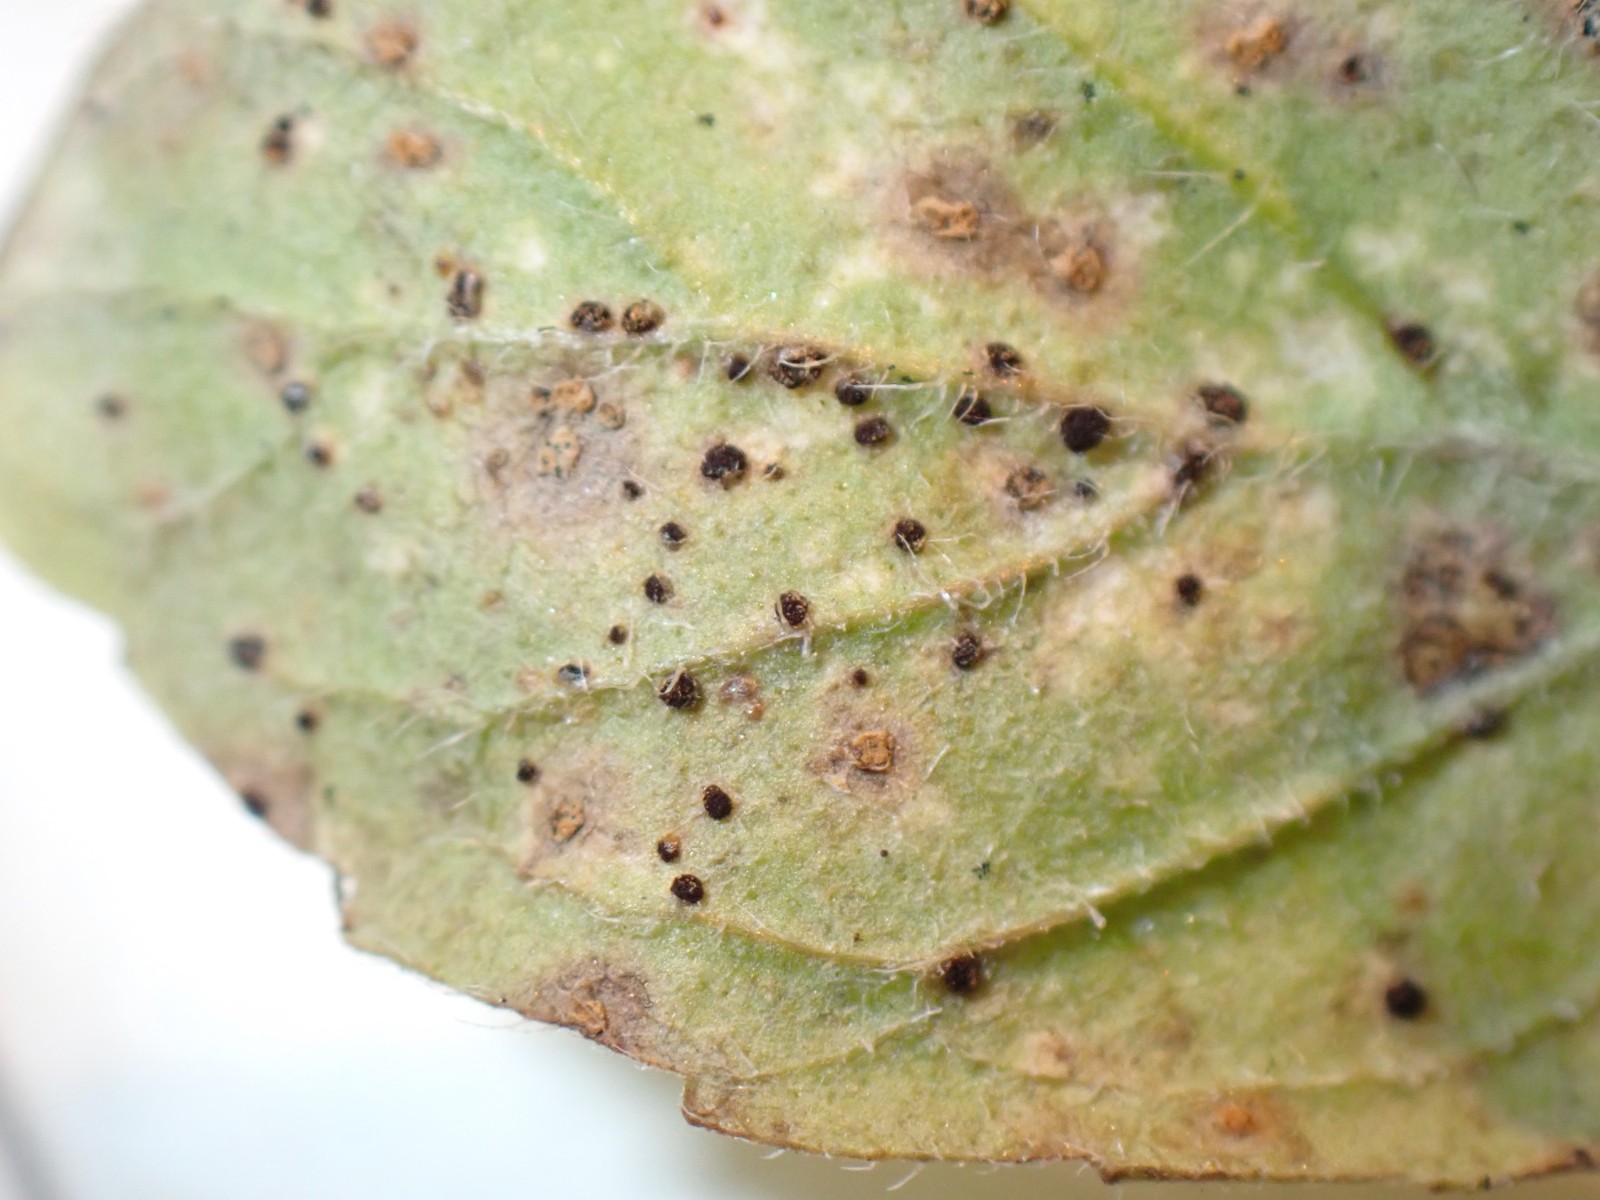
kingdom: Fungi
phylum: Basidiomycota
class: Pucciniomycetes
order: Pucciniales
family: Pucciniaceae
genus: Puccinia
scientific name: Puccinia menthae
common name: Mint rust
